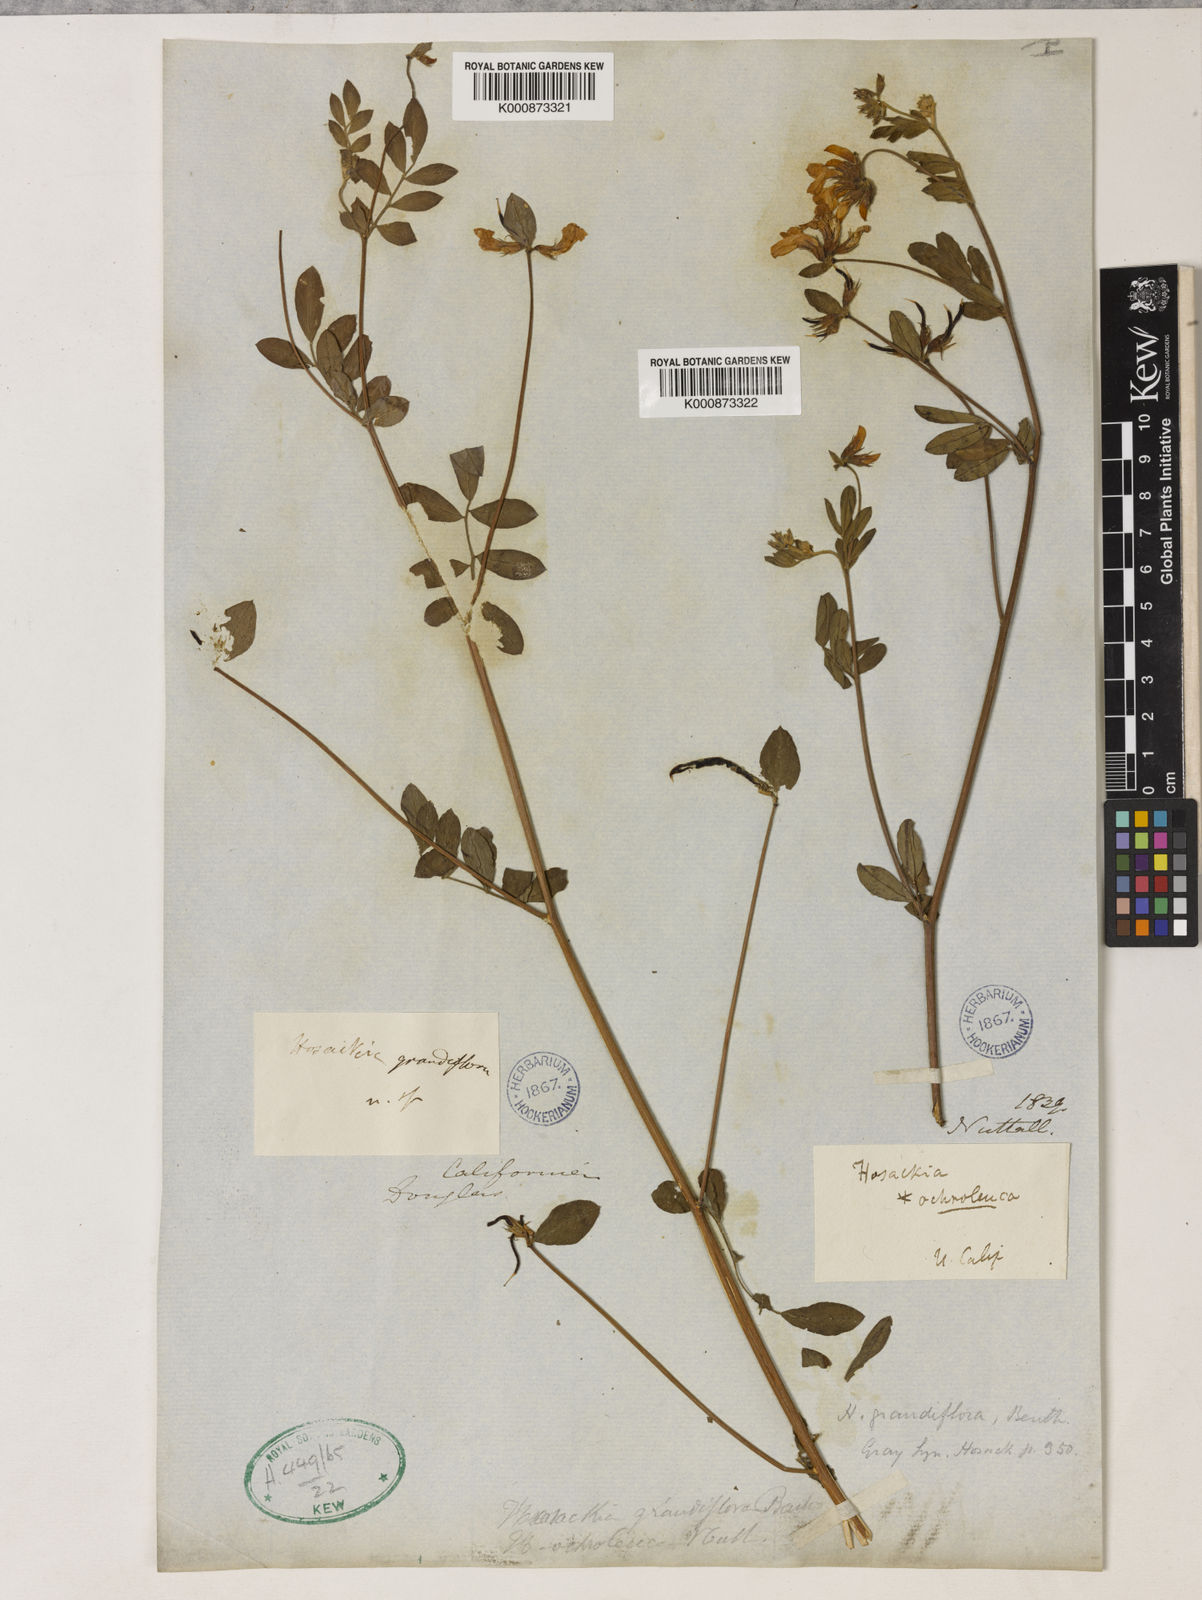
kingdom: Plantae
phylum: Tracheophyta
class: Magnoliopsida
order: Fabales
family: Fabaceae
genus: Acmispon
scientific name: Acmispon grandiflorus
